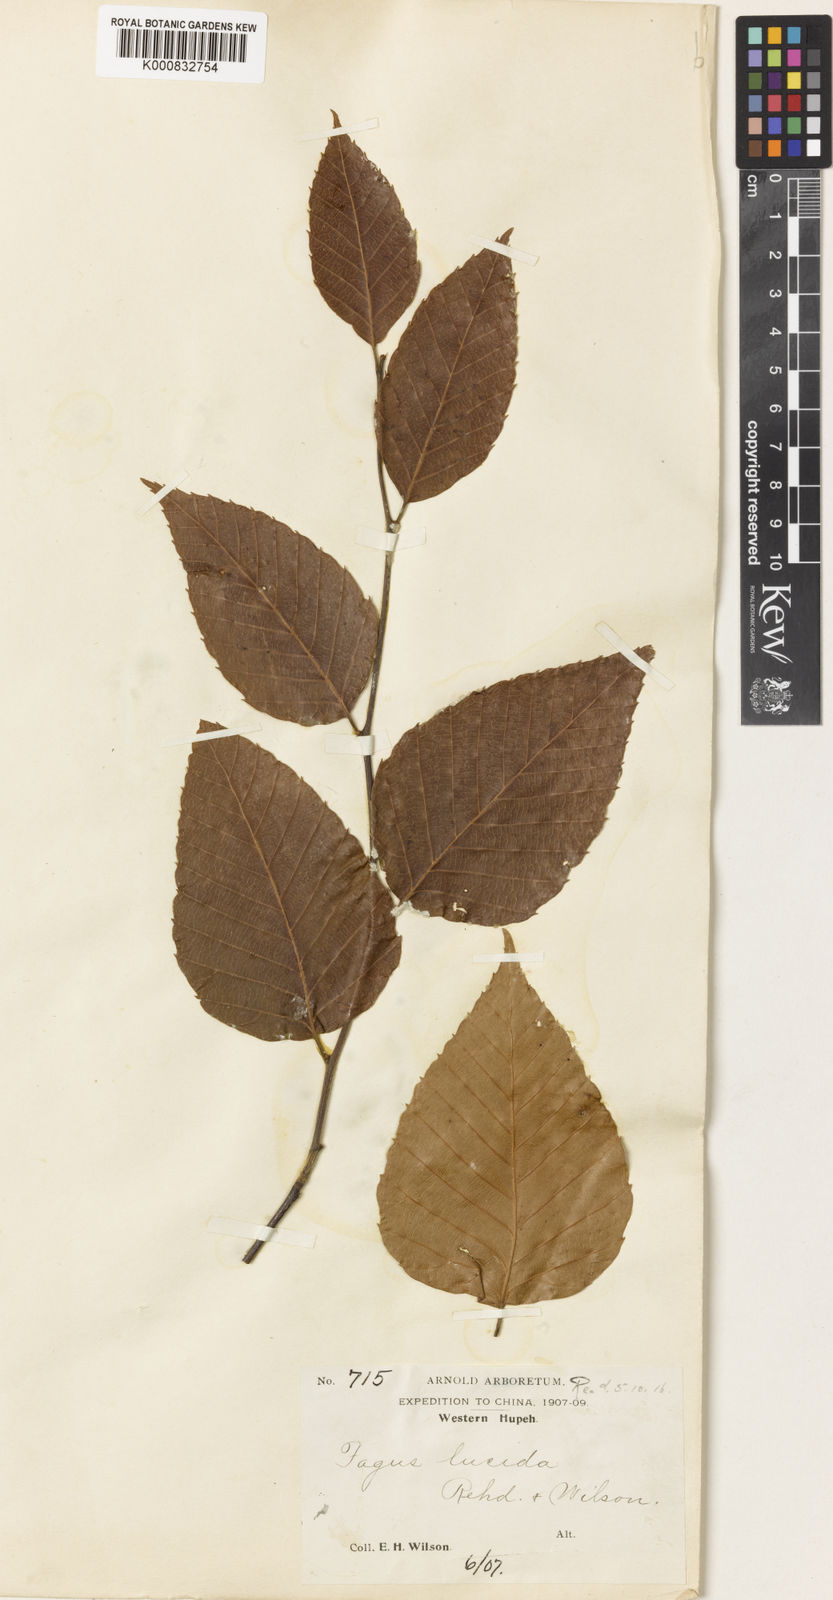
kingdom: Plantae
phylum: Tracheophyta
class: Magnoliopsida
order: Fagales
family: Fagaceae
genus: Fagus
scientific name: Fagus lucida
